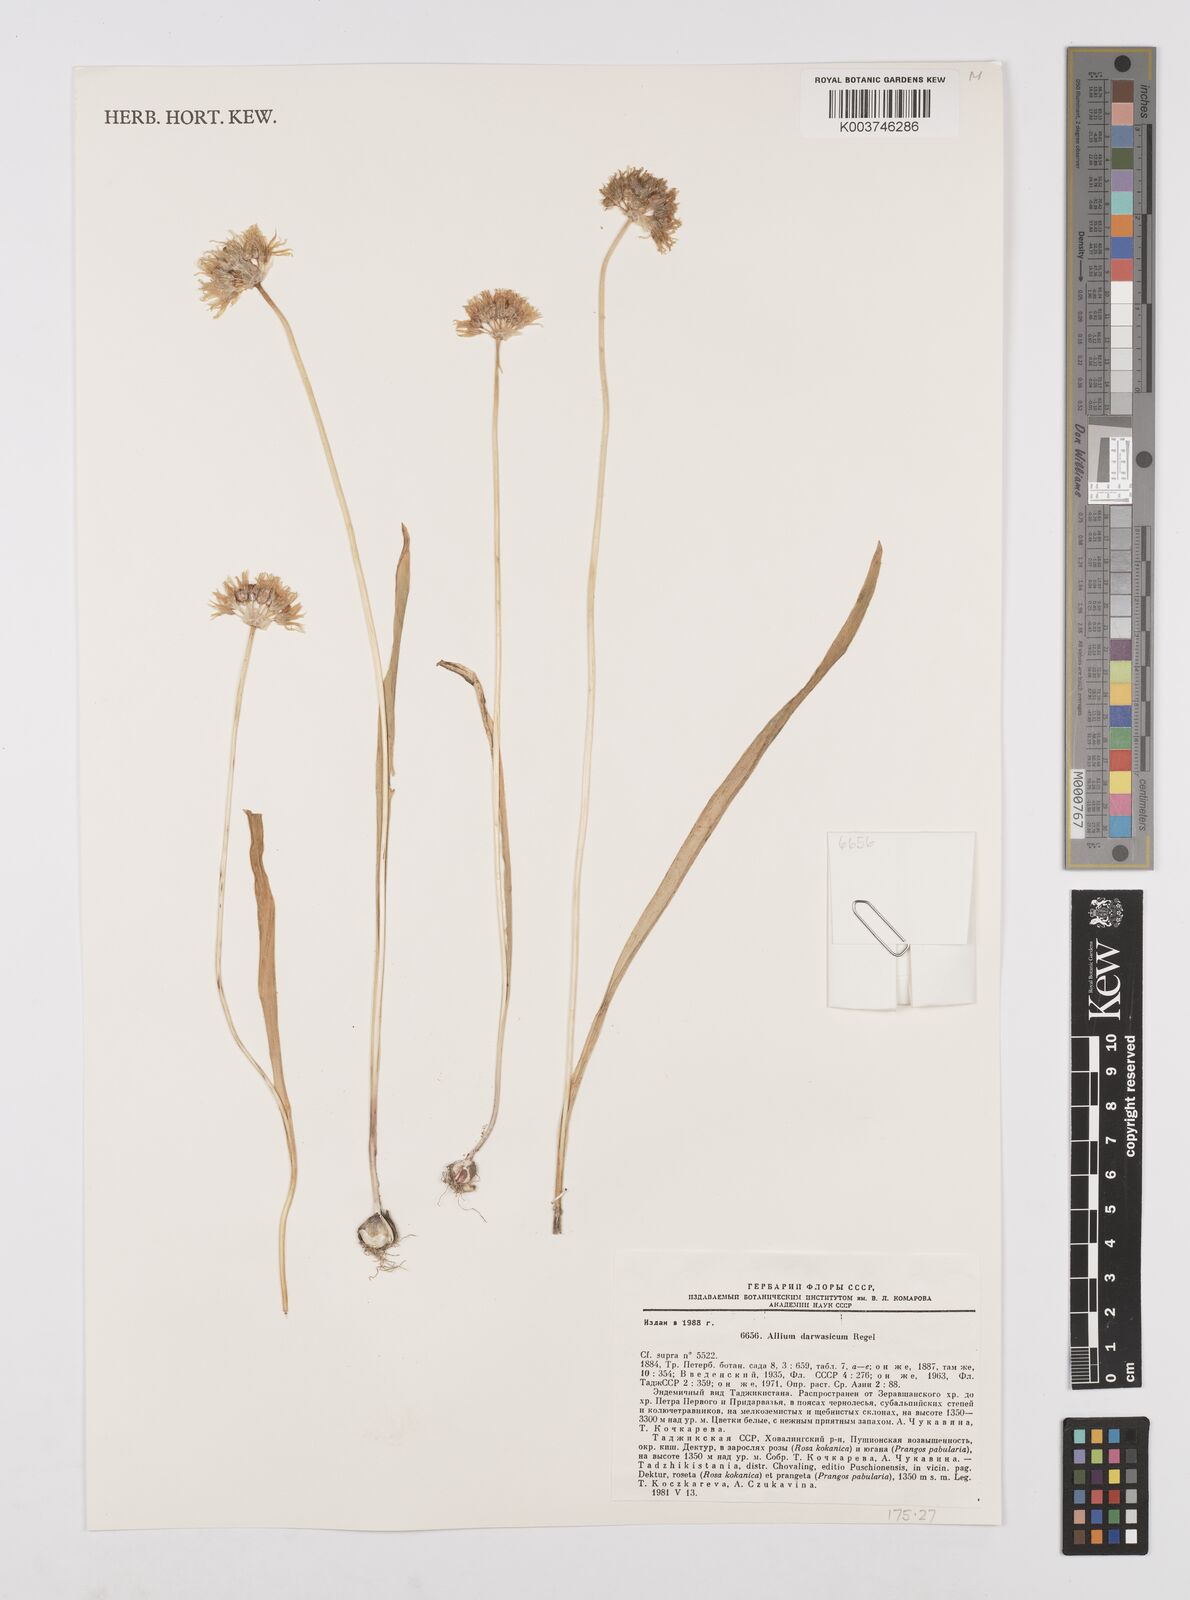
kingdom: Plantae
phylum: Tracheophyta
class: Liliopsida
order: Asparagales
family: Amaryllidaceae
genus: Allium
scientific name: Allium darwasicum
